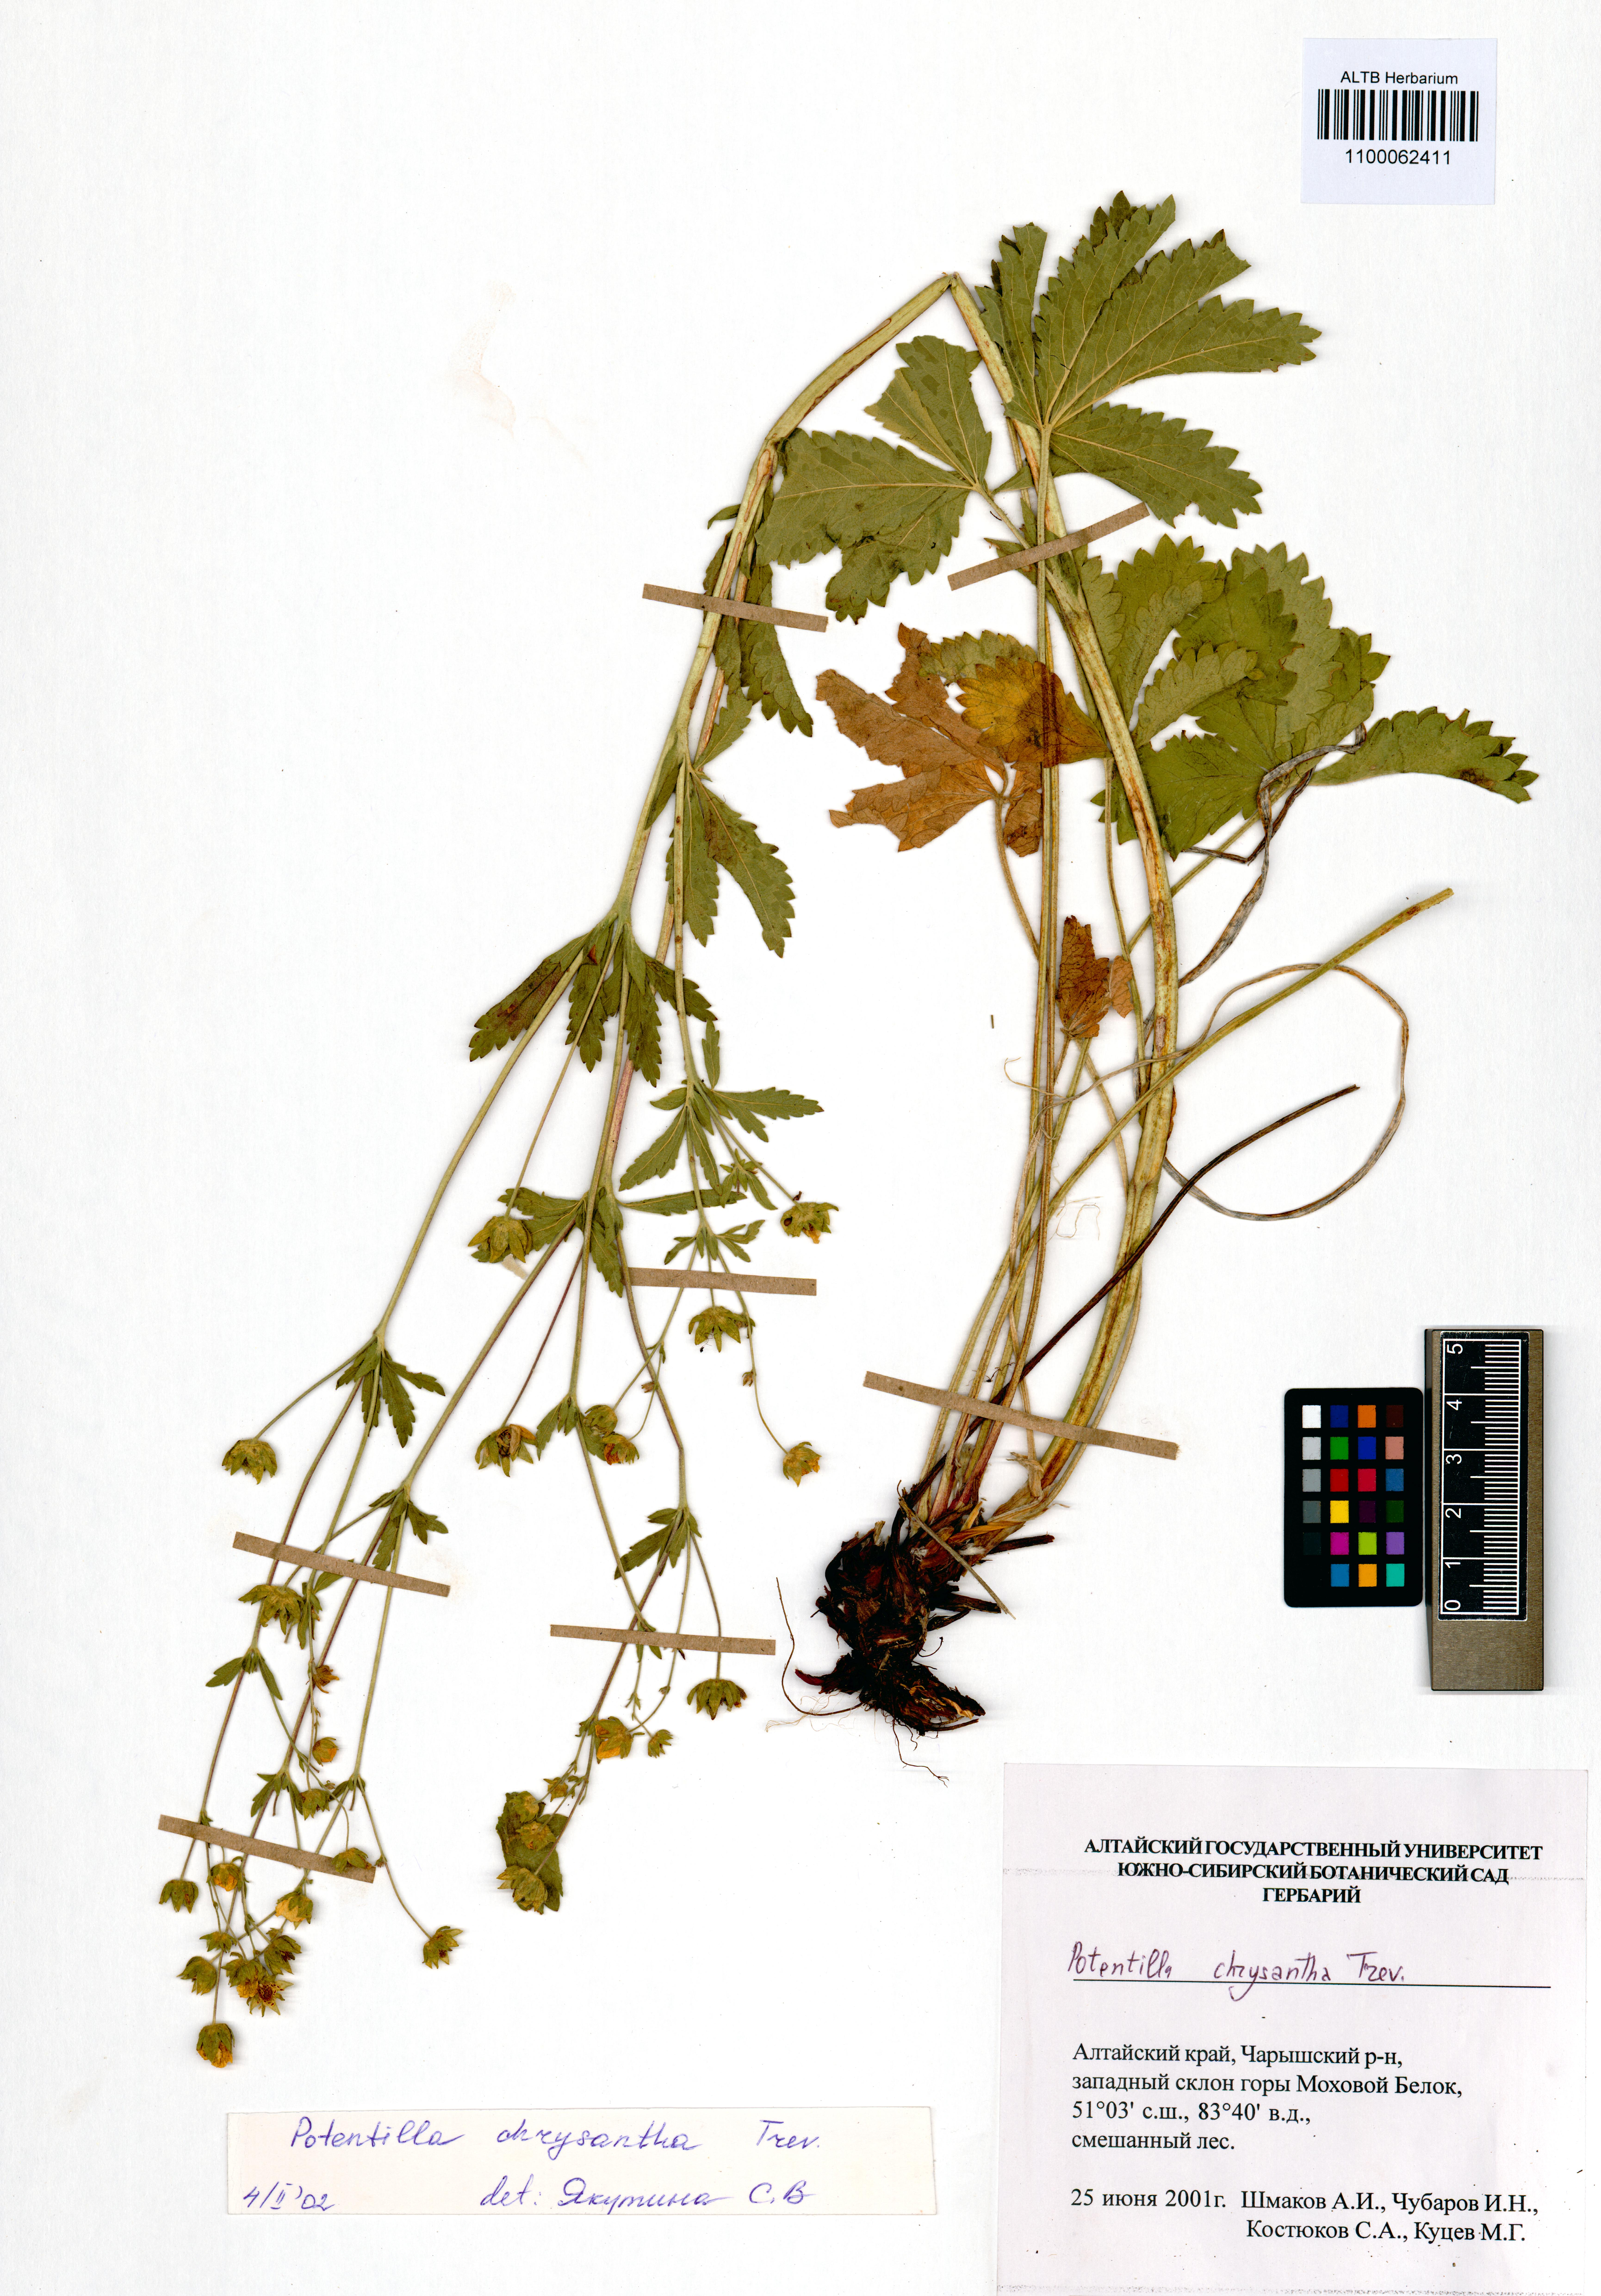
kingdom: Plantae
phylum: Tracheophyta
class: Magnoliopsida
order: Rosales
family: Rosaceae
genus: Potentilla
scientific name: Potentilla chrysantha
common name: Thuringian cinquefoil
